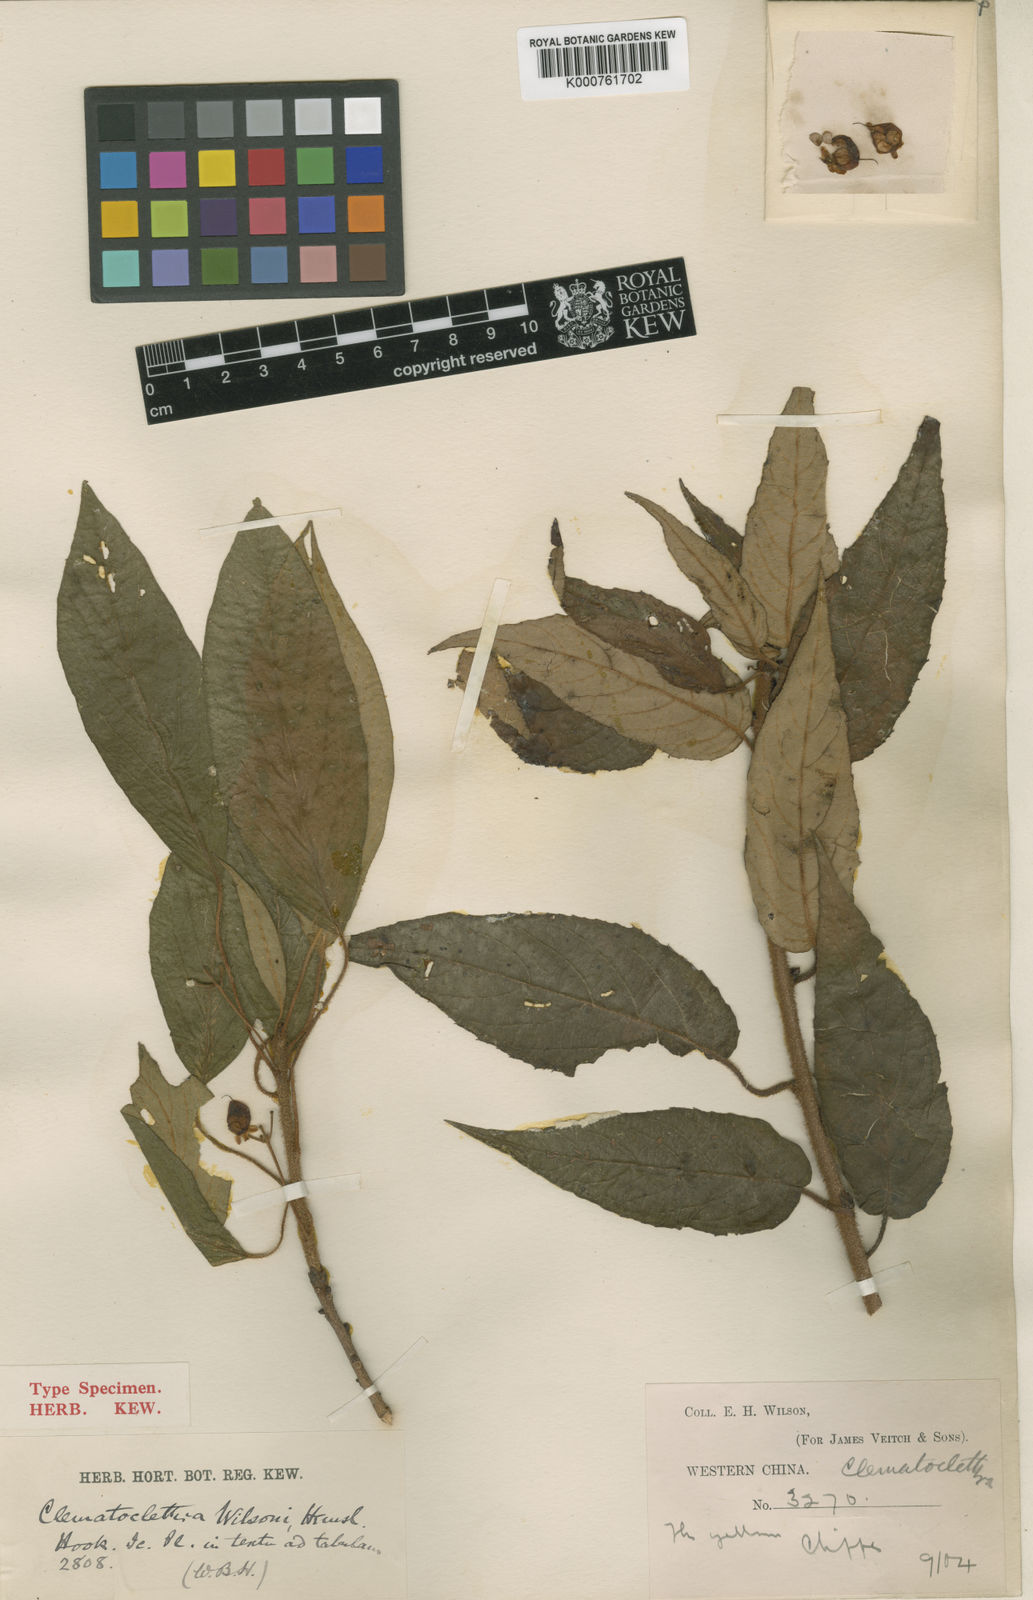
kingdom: Plantae
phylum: Tracheophyta
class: Magnoliopsida
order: Ericales
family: Actinidiaceae
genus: Clematoclethra
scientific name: Clematoclethra scandens
